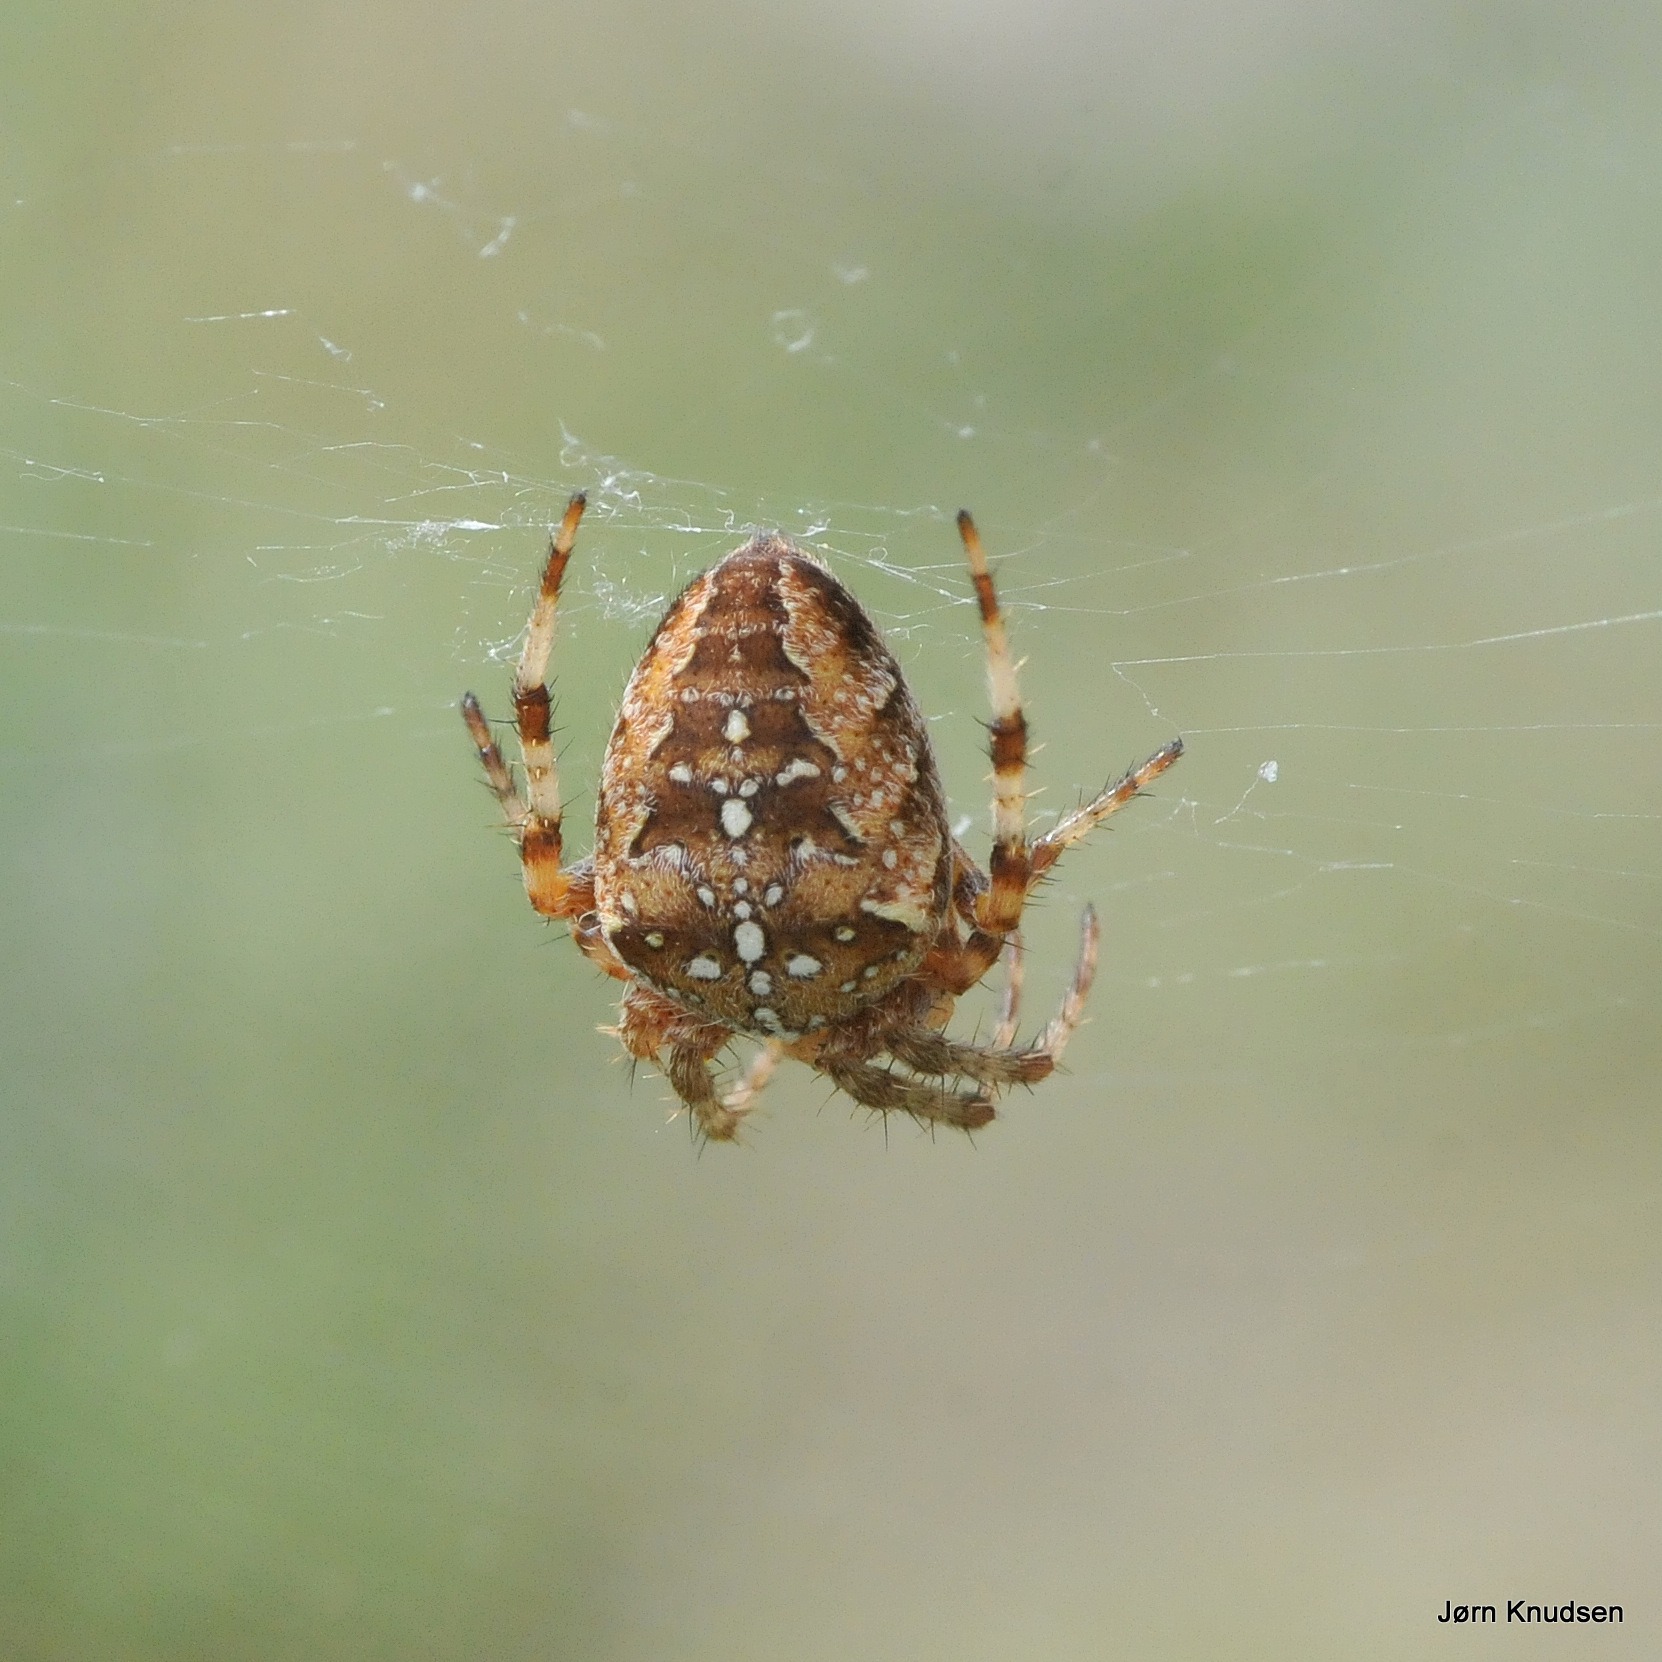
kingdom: Animalia
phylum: Arthropoda
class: Arachnida
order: Araneae
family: Araneidae
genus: Araneus
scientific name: Araneus diadematus
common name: Korsedderkop
